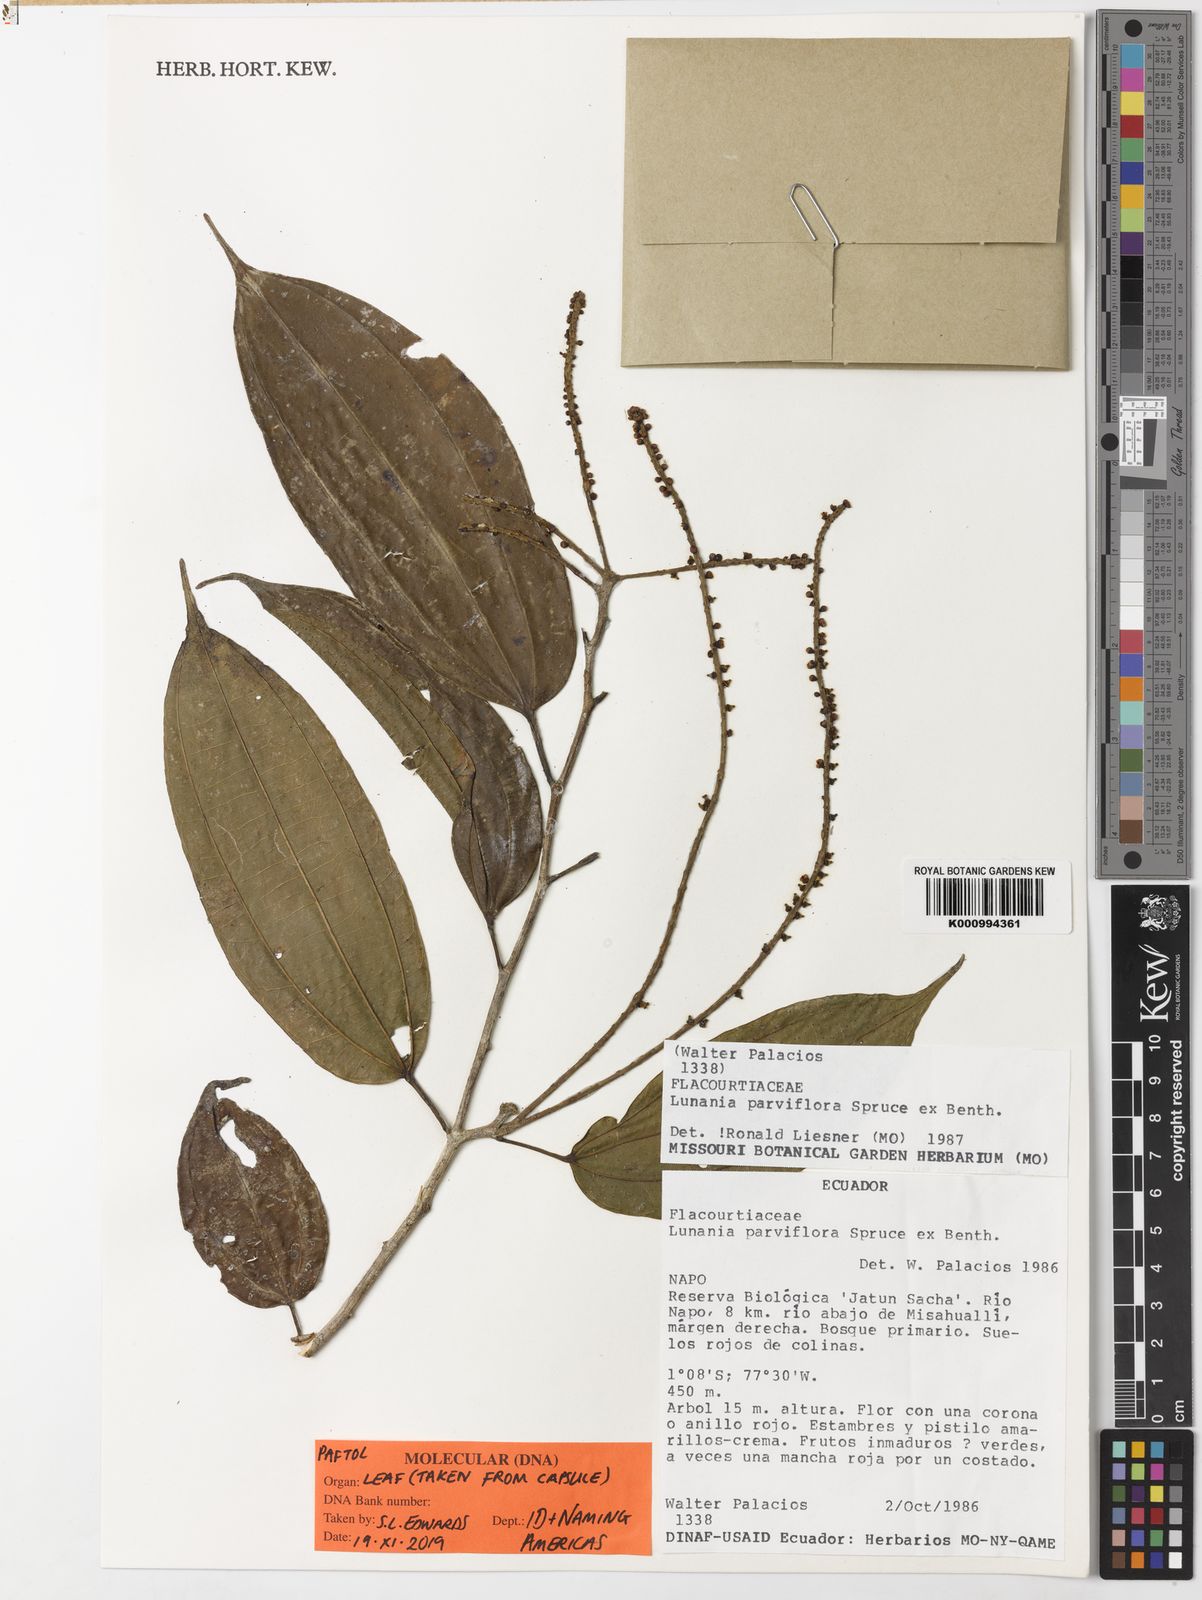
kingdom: Plantae
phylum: Tracheophyta
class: Magnoliopsida
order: Malpighiales
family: Salicaceae
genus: Lunania
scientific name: Lunania parviflora
